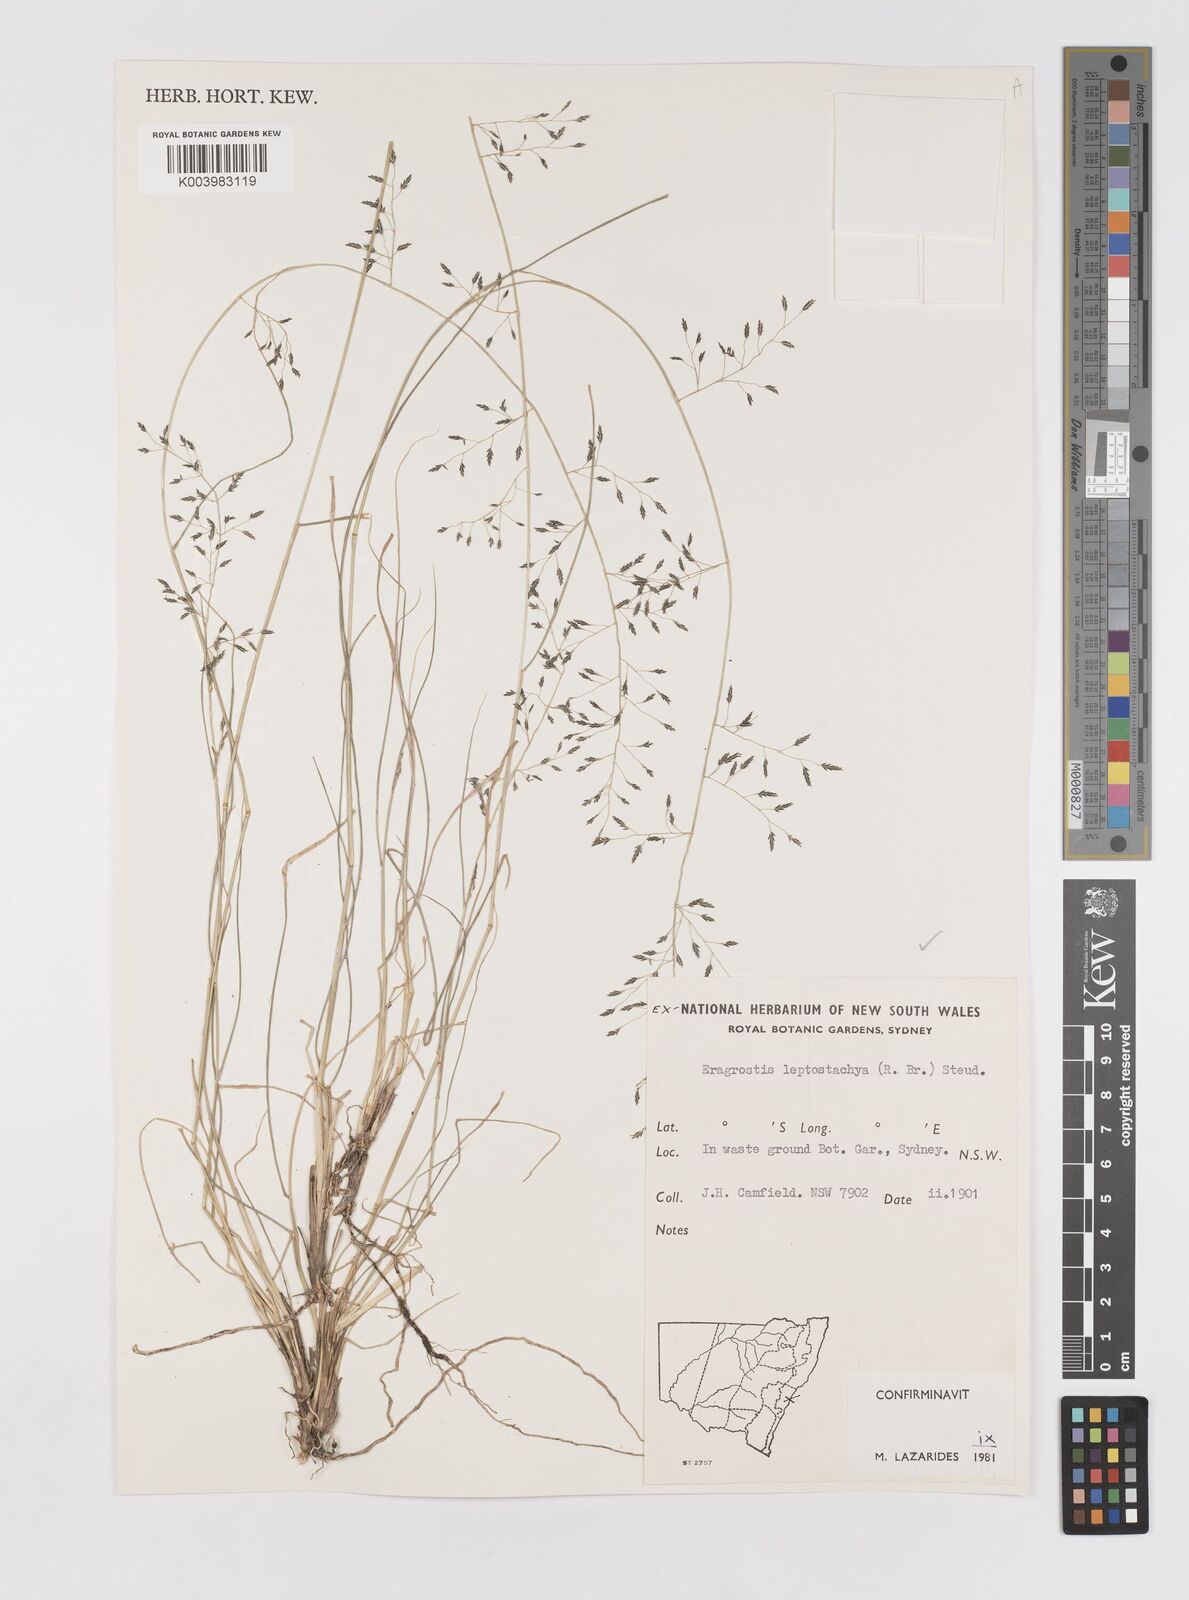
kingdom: Plantae
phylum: Tracheophyta
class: Liliopsida
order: Poales
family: Poaceae
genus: Eragrostis
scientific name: Eragrostis leptostachya
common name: Australian lovegrass
